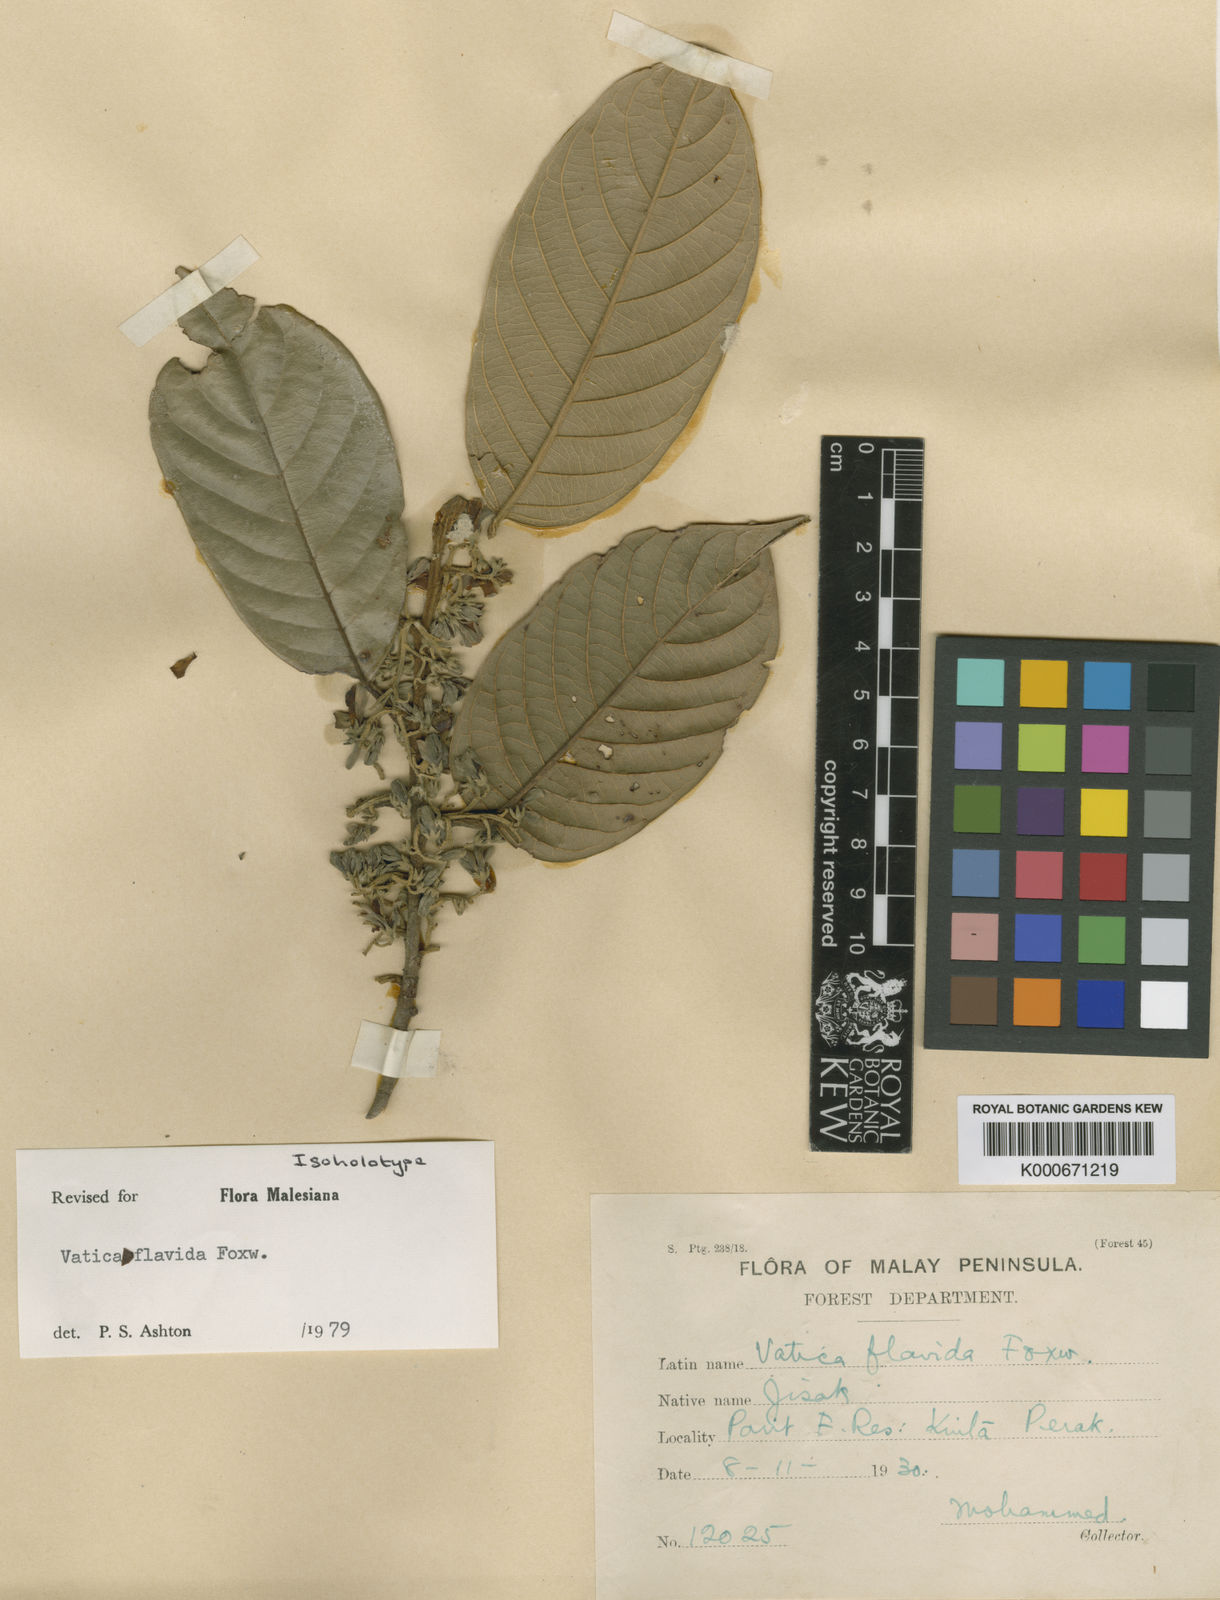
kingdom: Plantae
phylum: Tracheophyta
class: Magnoliopsida
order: Malvales
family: Dipterocarpaceae
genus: Vatica
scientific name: Vatica flavida
